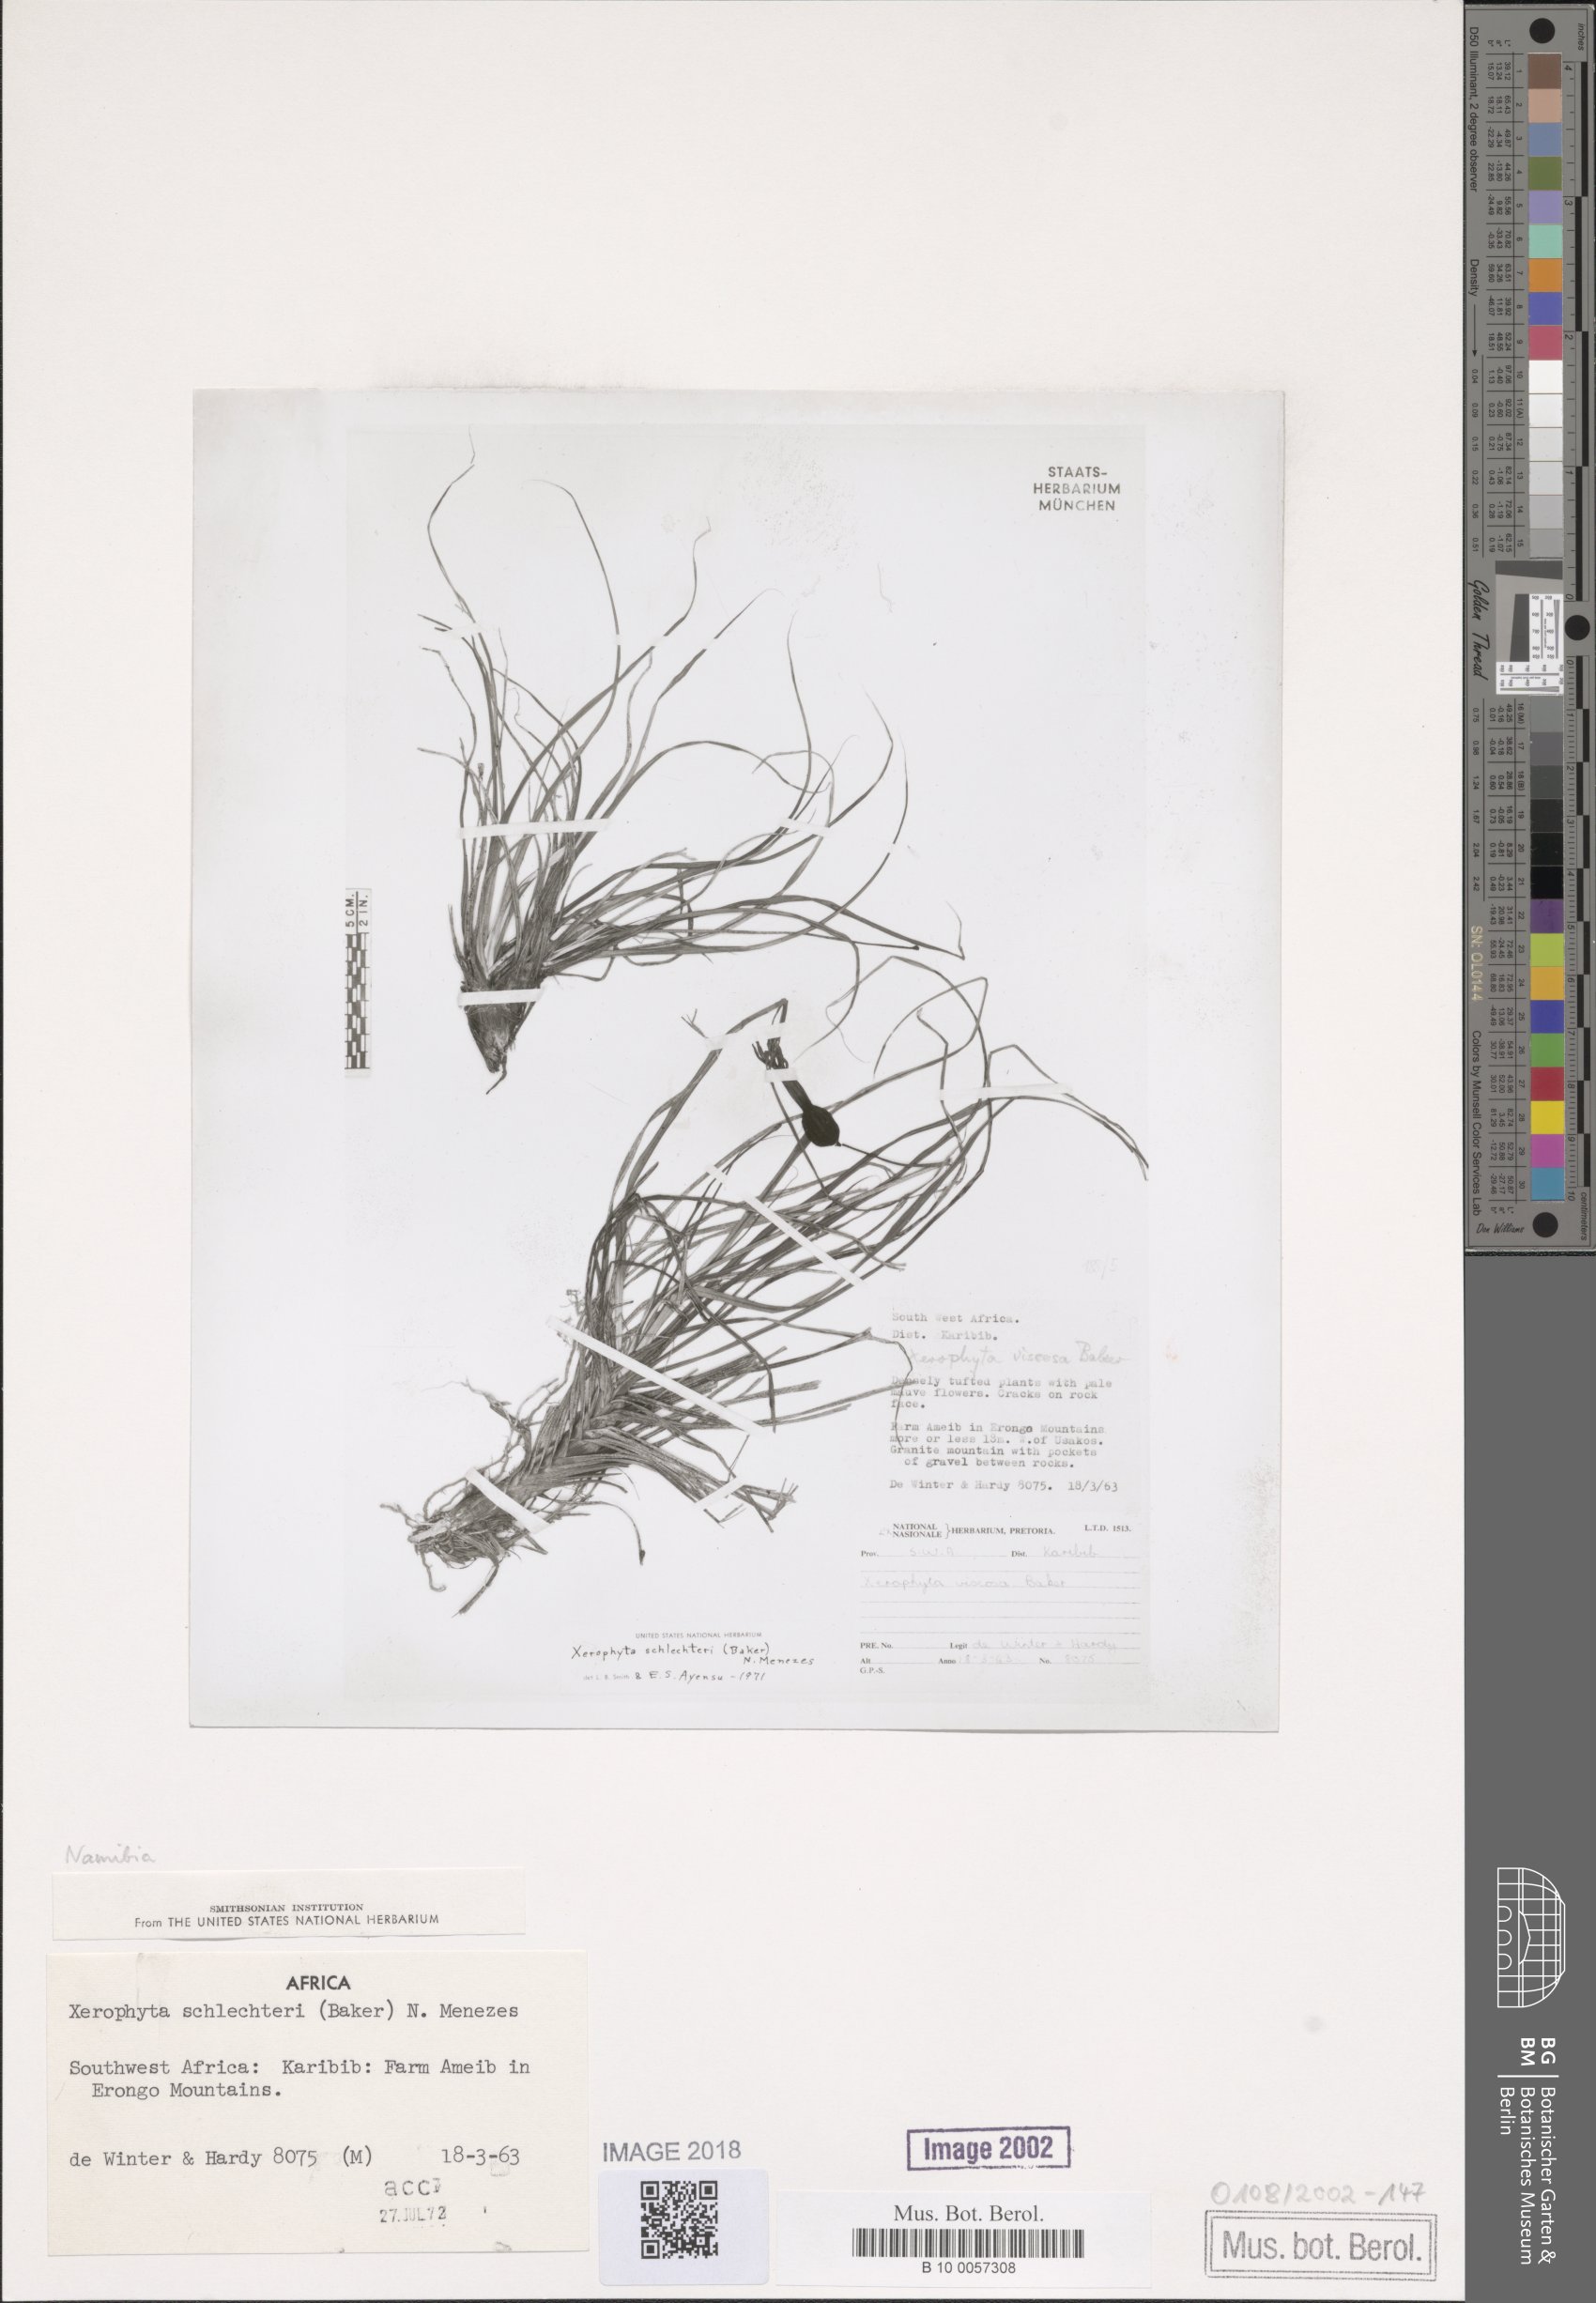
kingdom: Plantae
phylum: Tracheophyta
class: Liliopsida
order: Pandanales
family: Velloziaceae
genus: Xerophyta
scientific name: Xerophyta schlechteri
